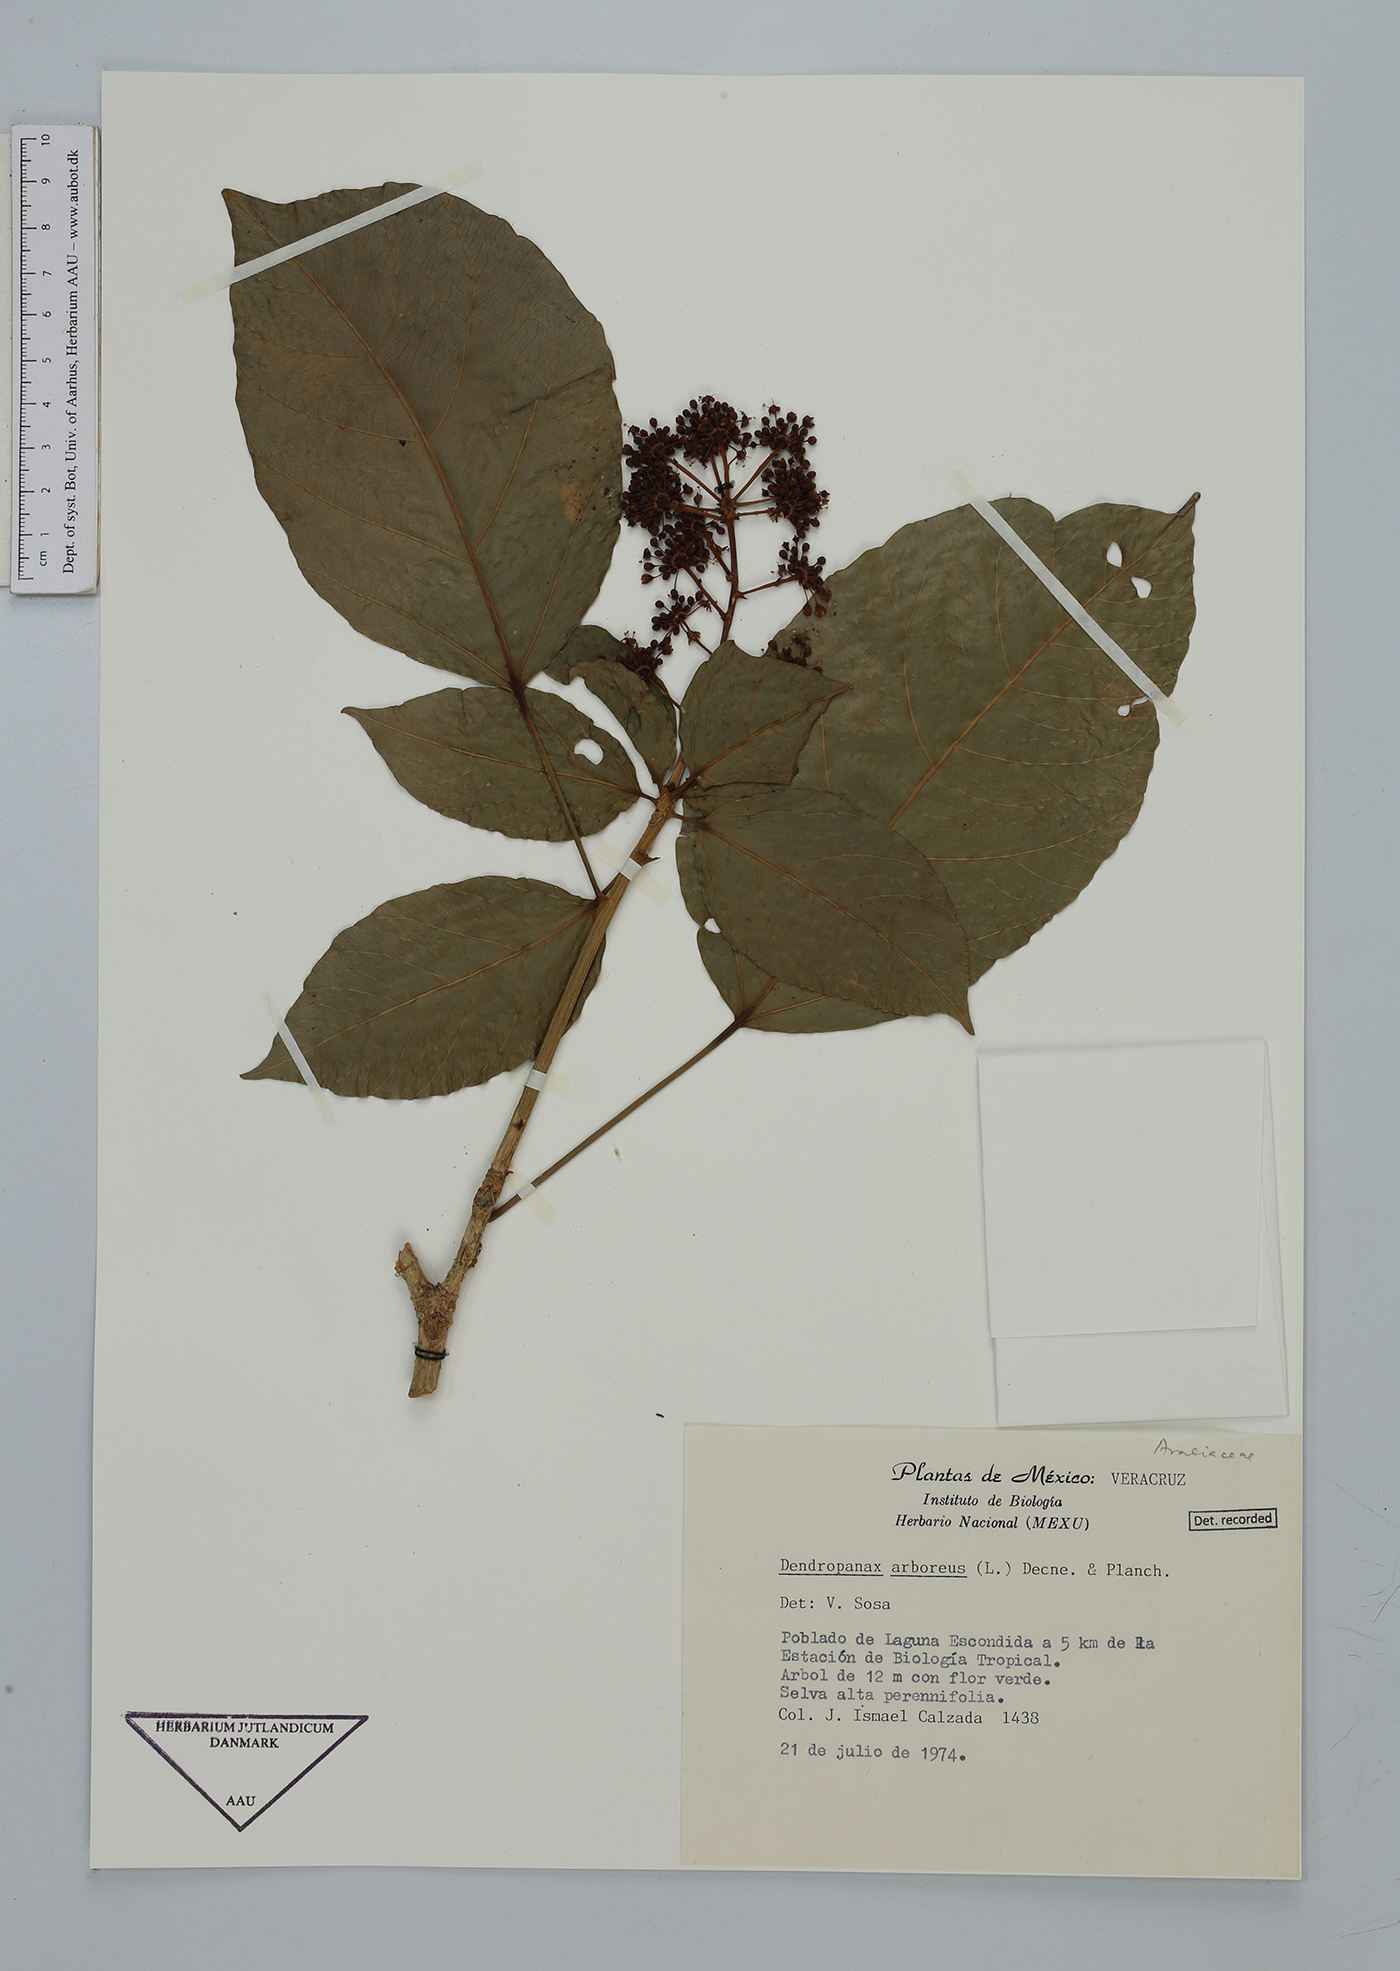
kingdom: Plantae
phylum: Tracheophyta
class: Magnoliopsida
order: Apiales
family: Araliaceae
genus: Dendropanax
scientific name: Dendropanax arboreus
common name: Potato-wood
